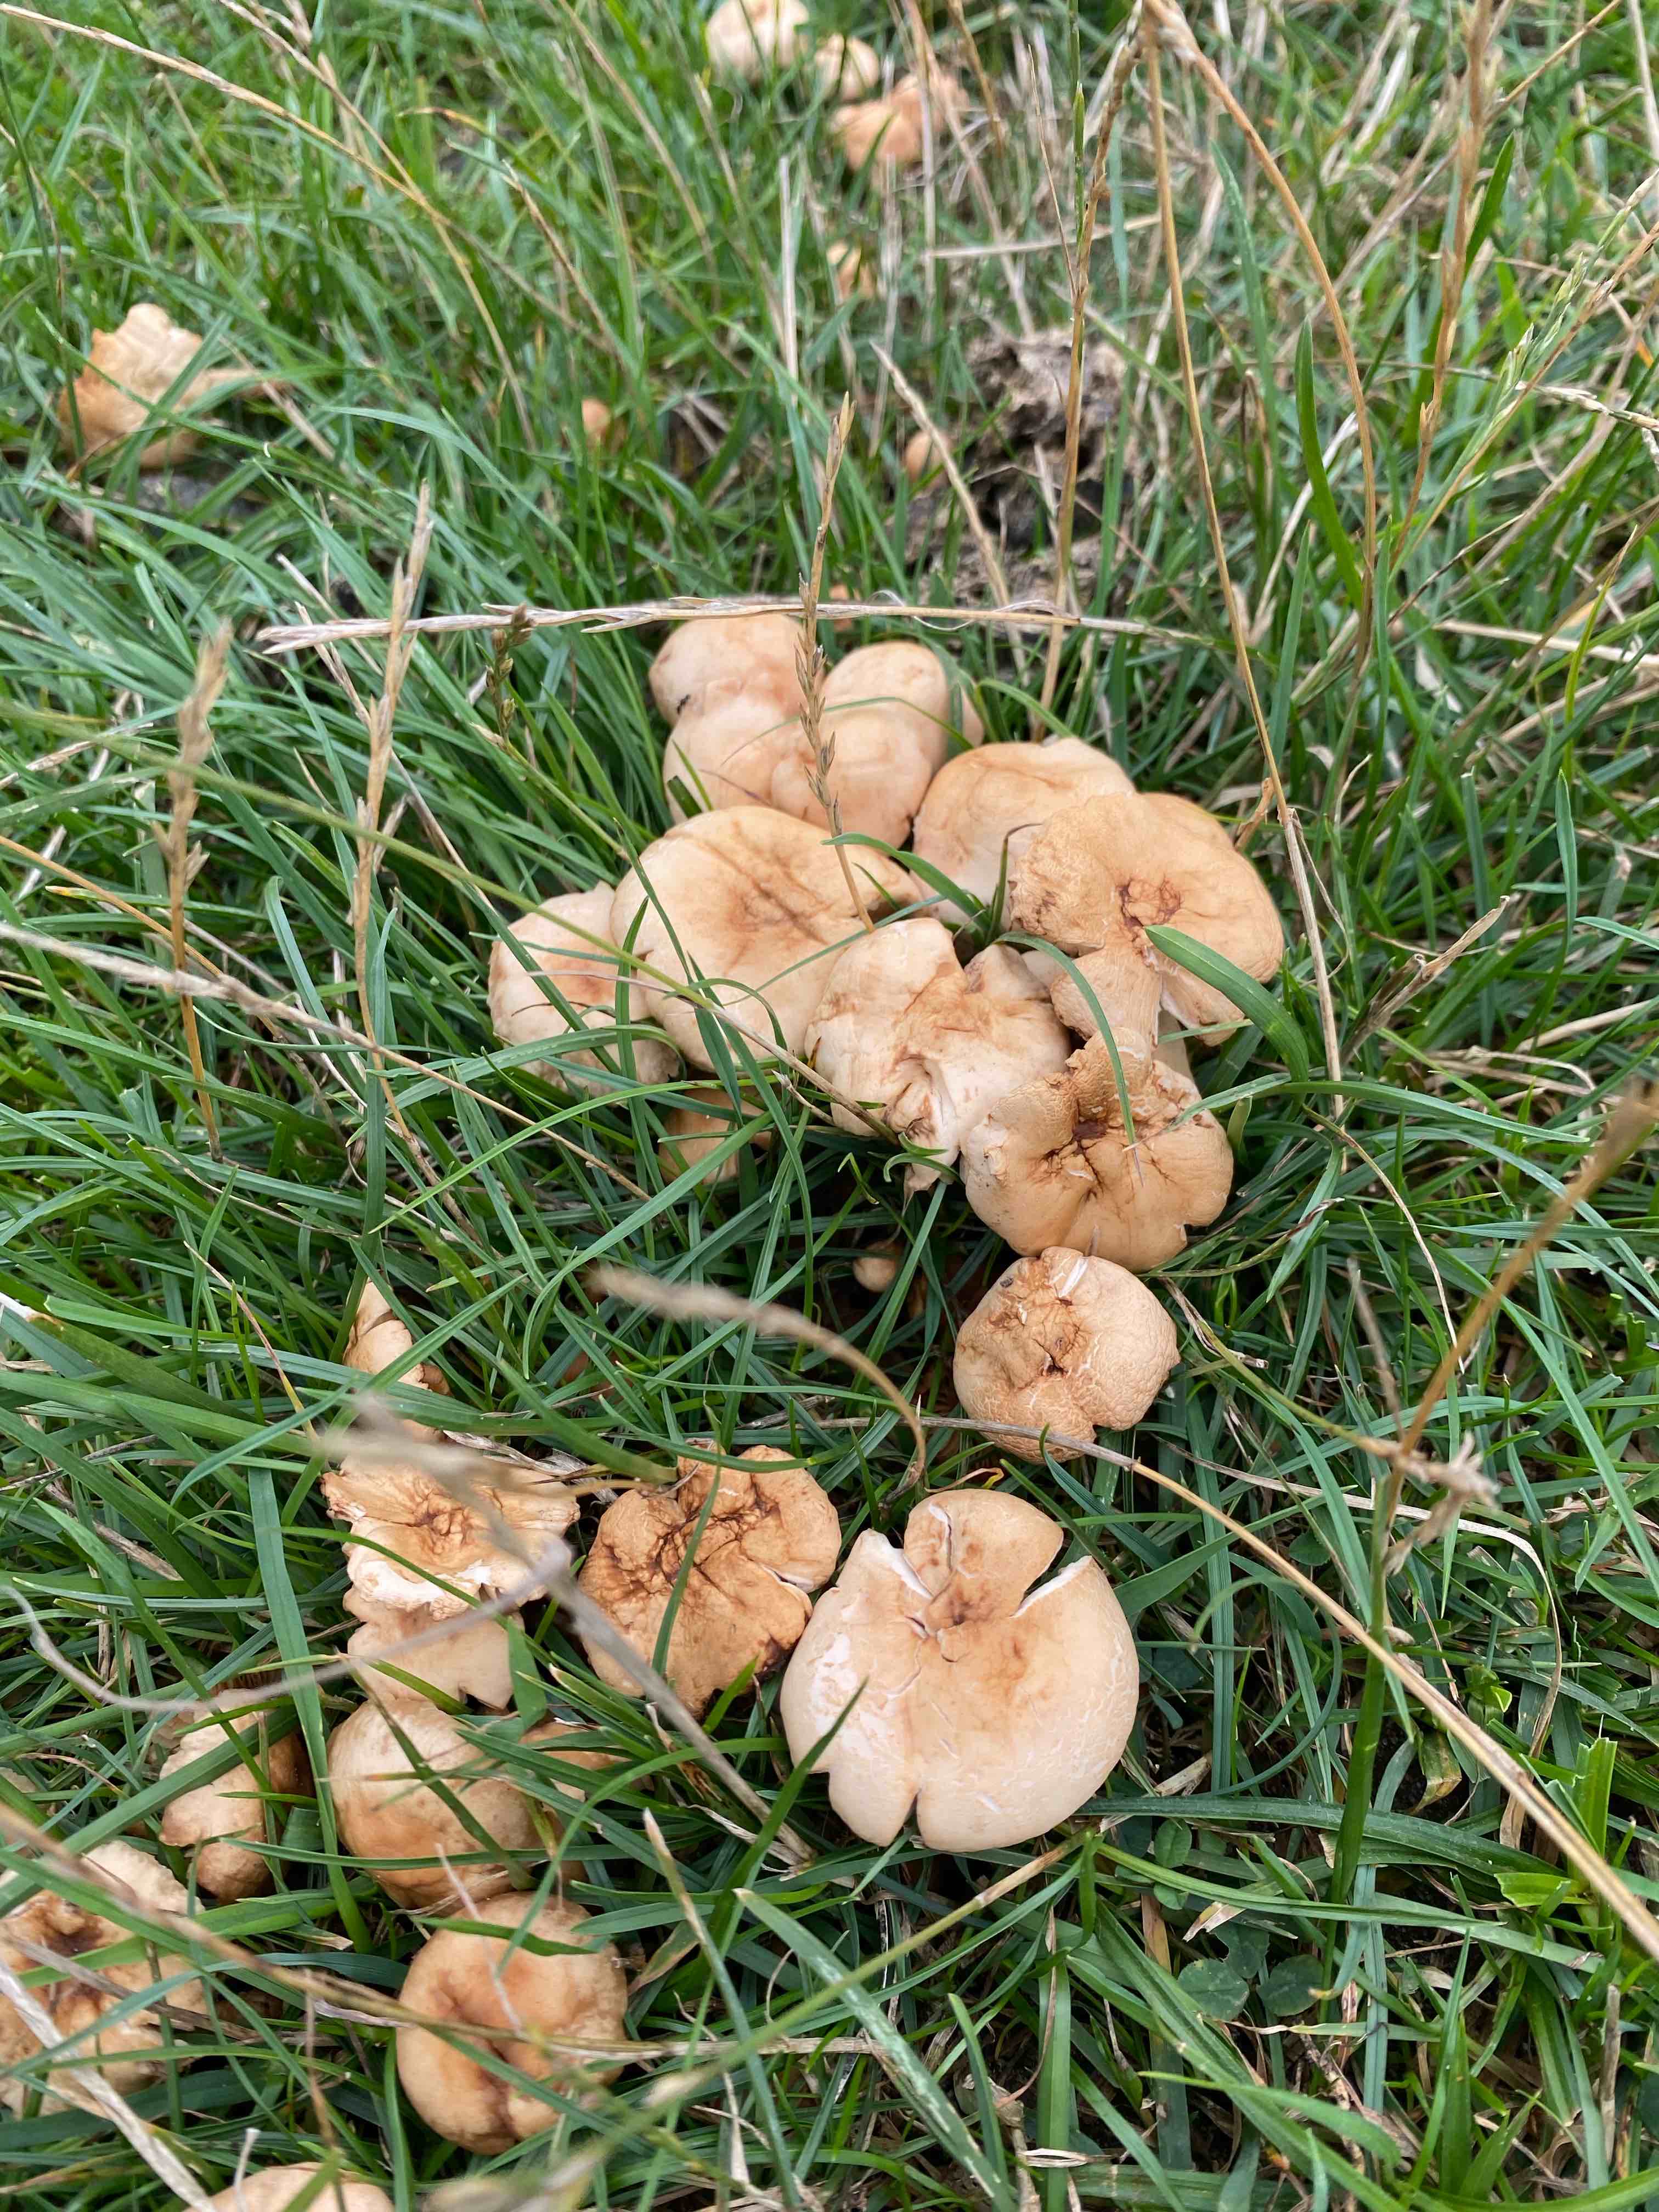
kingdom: Fungi
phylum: Basidiomycota
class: Agaricomycetes
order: Agaricales
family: Marasmiaceae
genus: Marasmius
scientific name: Marasmius oreades
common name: elledans-bruskhat
